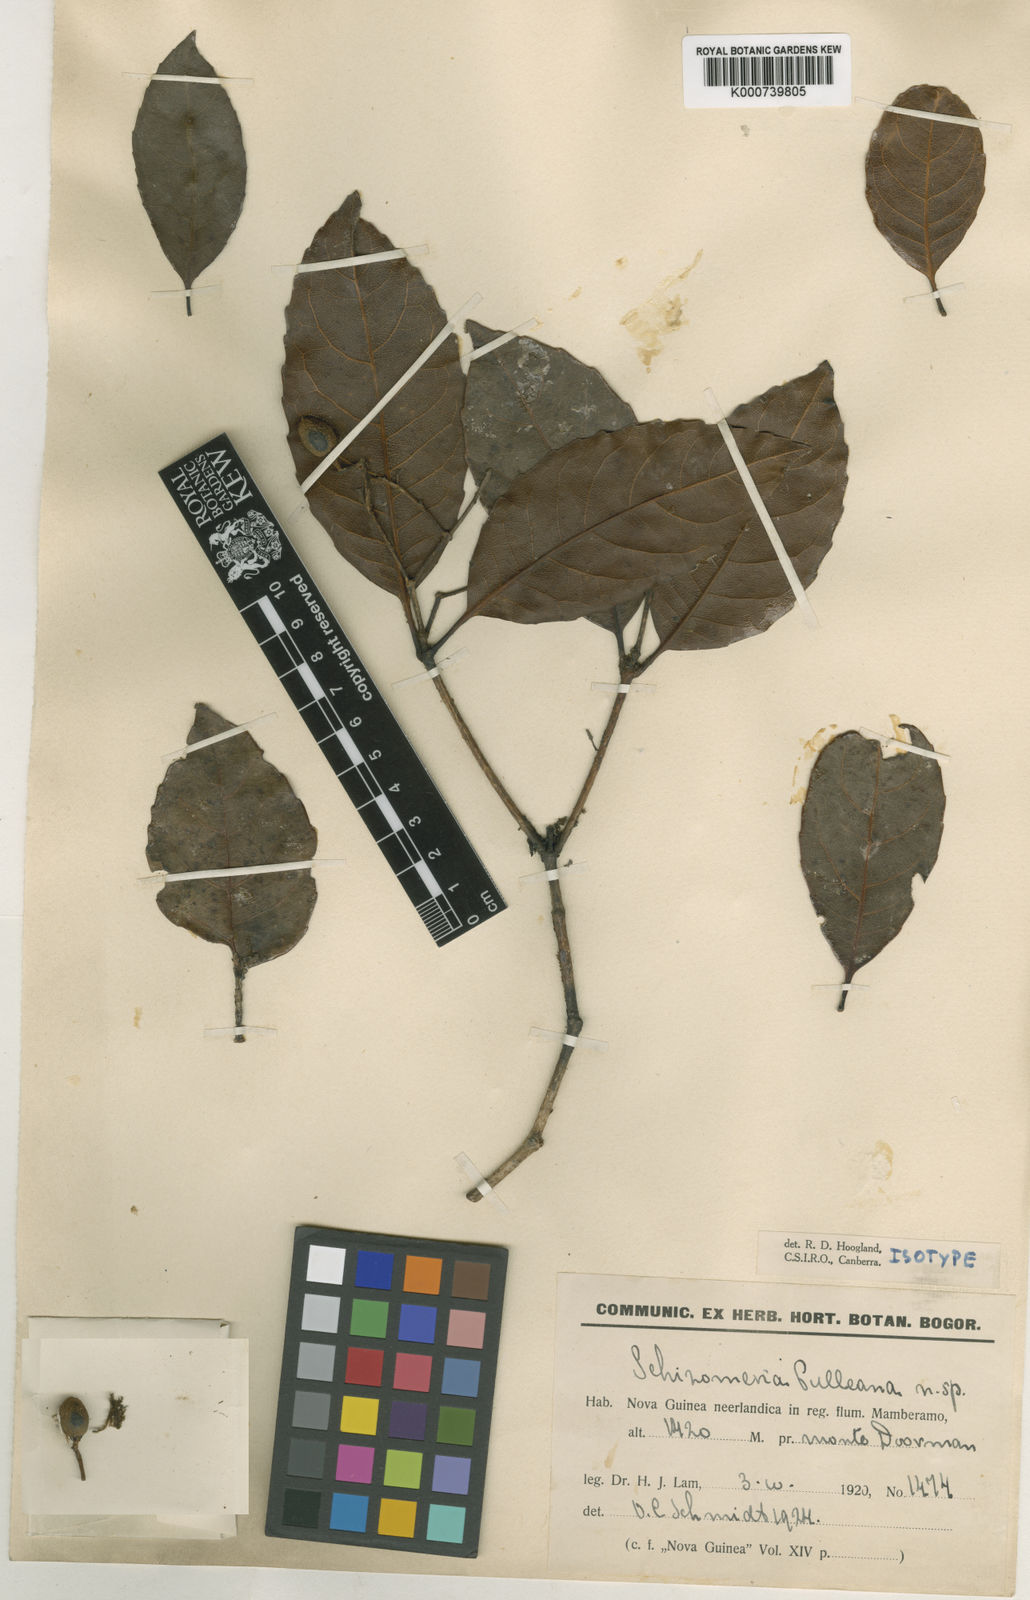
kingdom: Plantae
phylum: Tracheophyta
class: Magnoliopsida
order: Oxalidales
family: Cunoniaceae
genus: Schizomeria
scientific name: Schizomeria gorumensis
